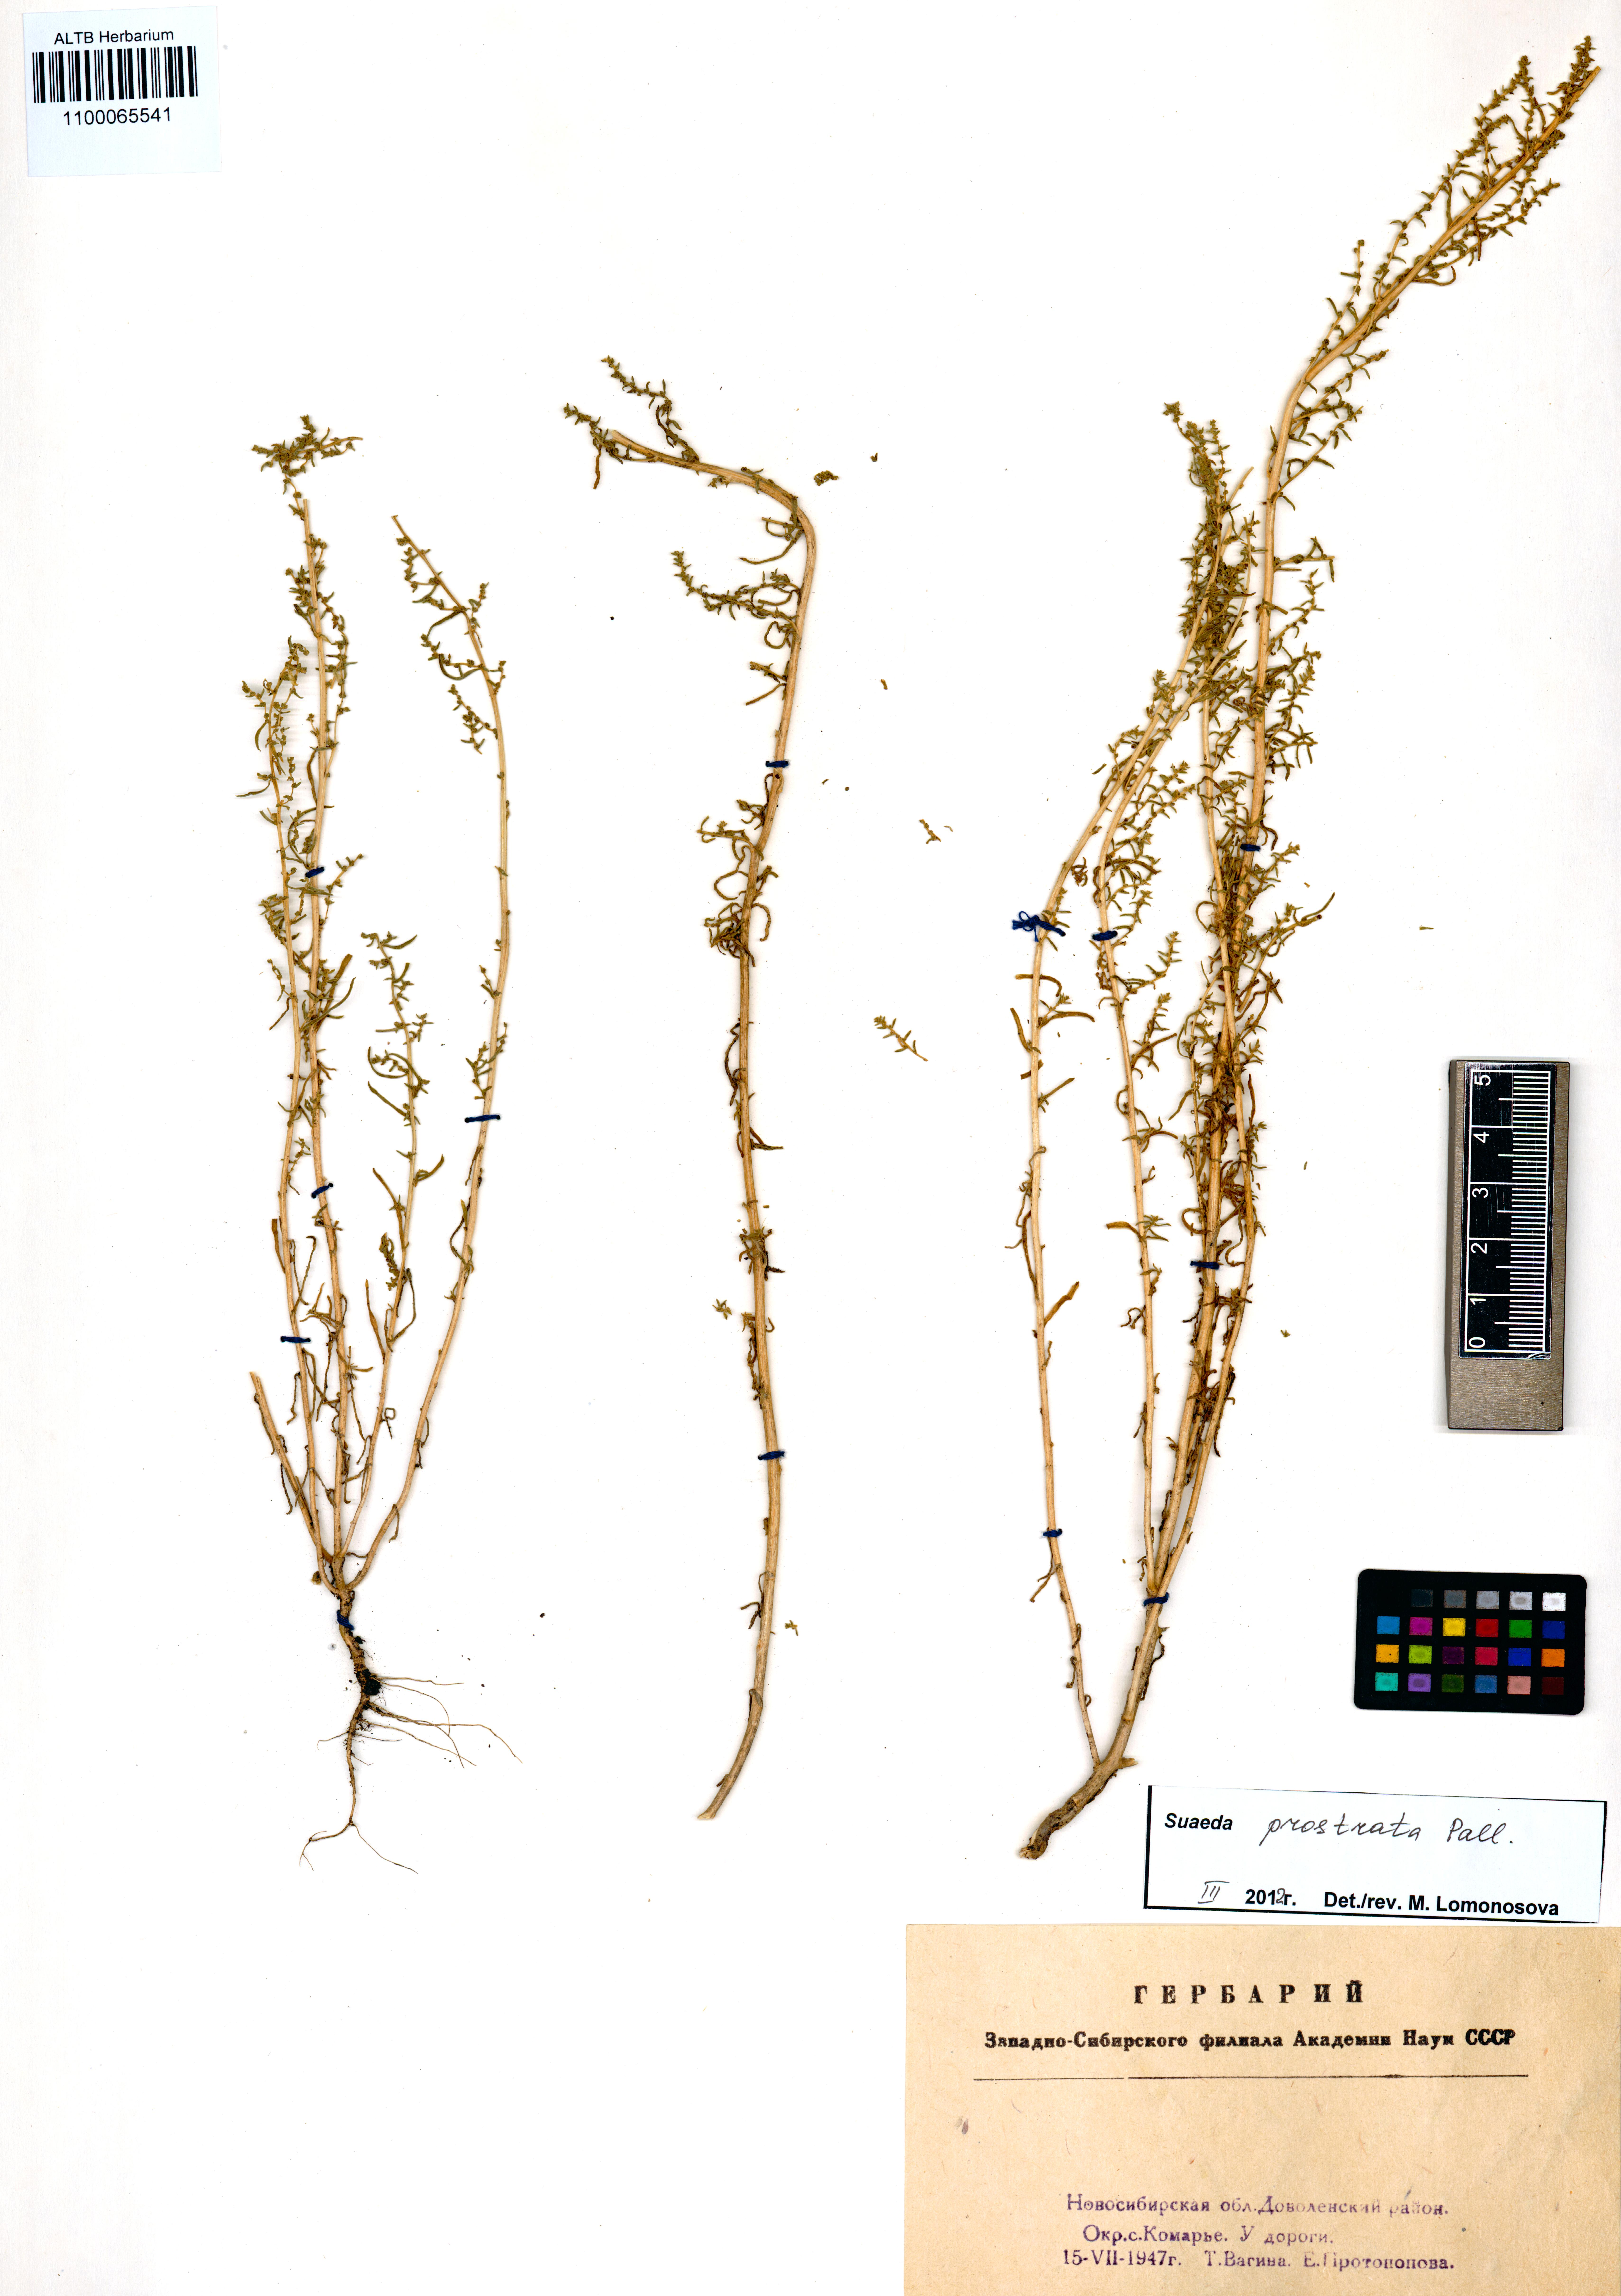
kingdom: Plantae
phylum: Tracheophyta
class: Magnoliopsida
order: Caryophyllales
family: Amaranthaceae
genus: Suaeda
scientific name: Suaeda prostrata
